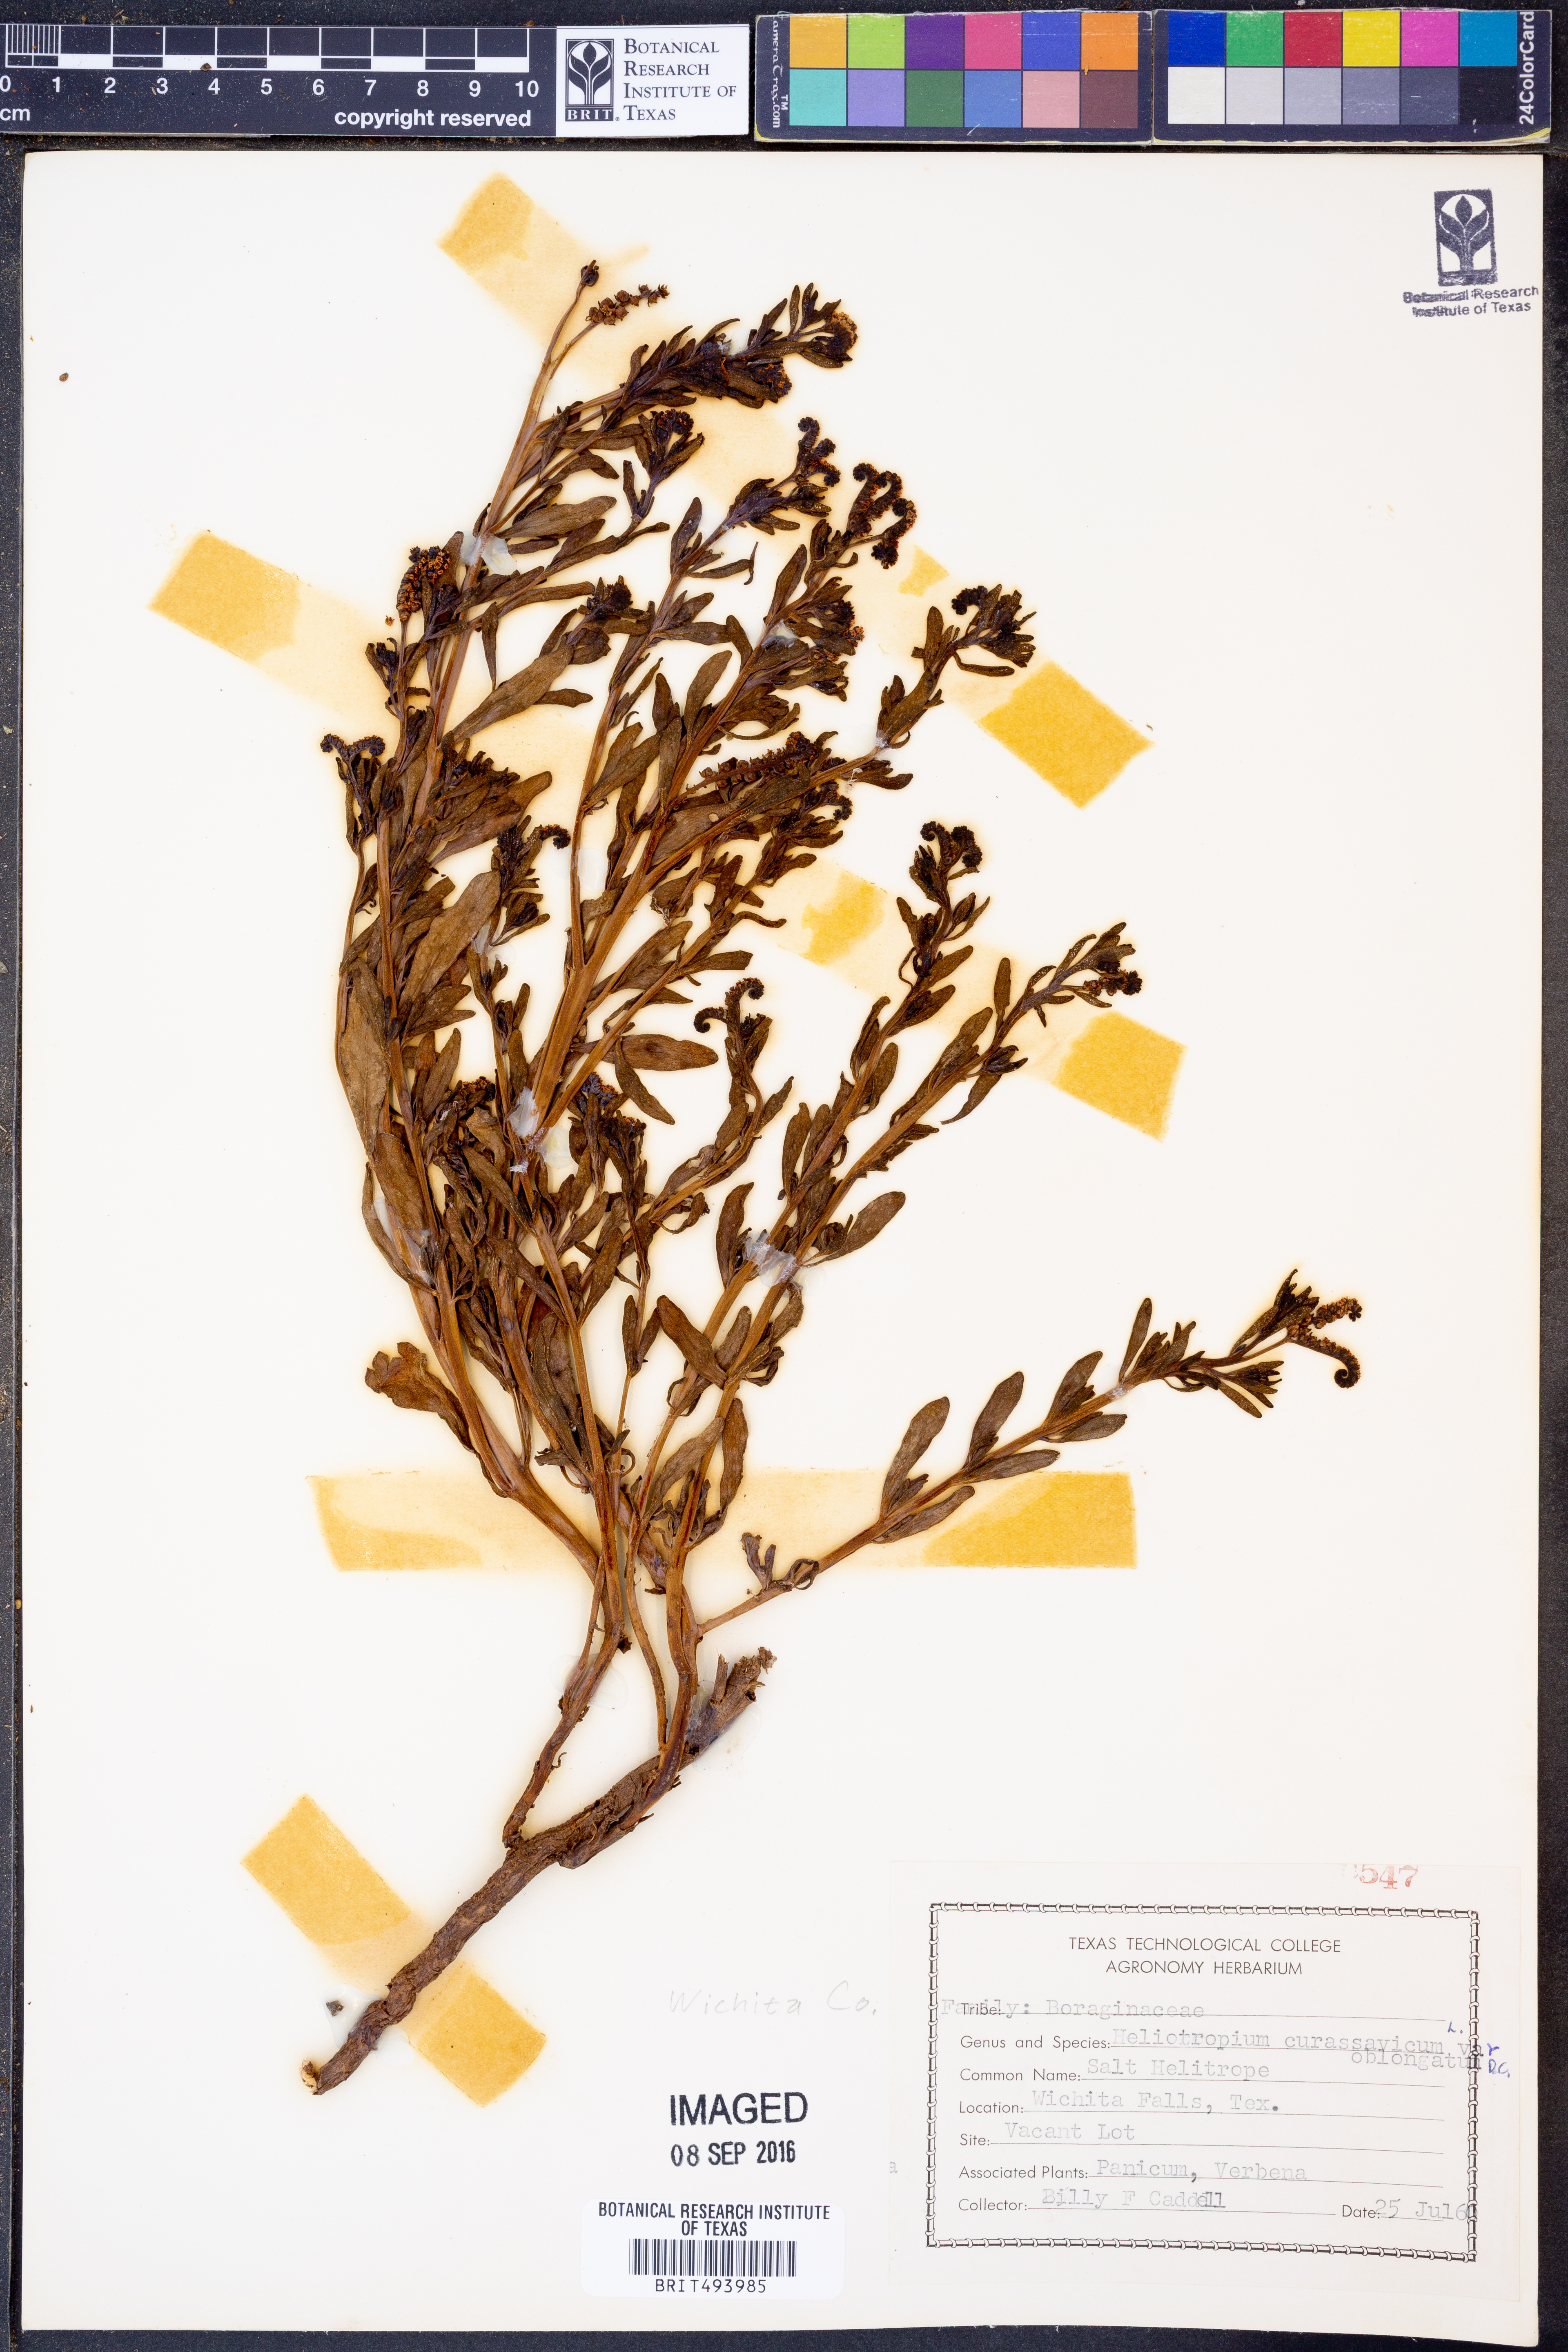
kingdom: Plantae
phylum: Tracheophyta
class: Magnoliopsida
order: Boraginales
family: Heliotropiaceae
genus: Heliotropium
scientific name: Heliotropium curassavicum
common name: Seaside heliotrope
